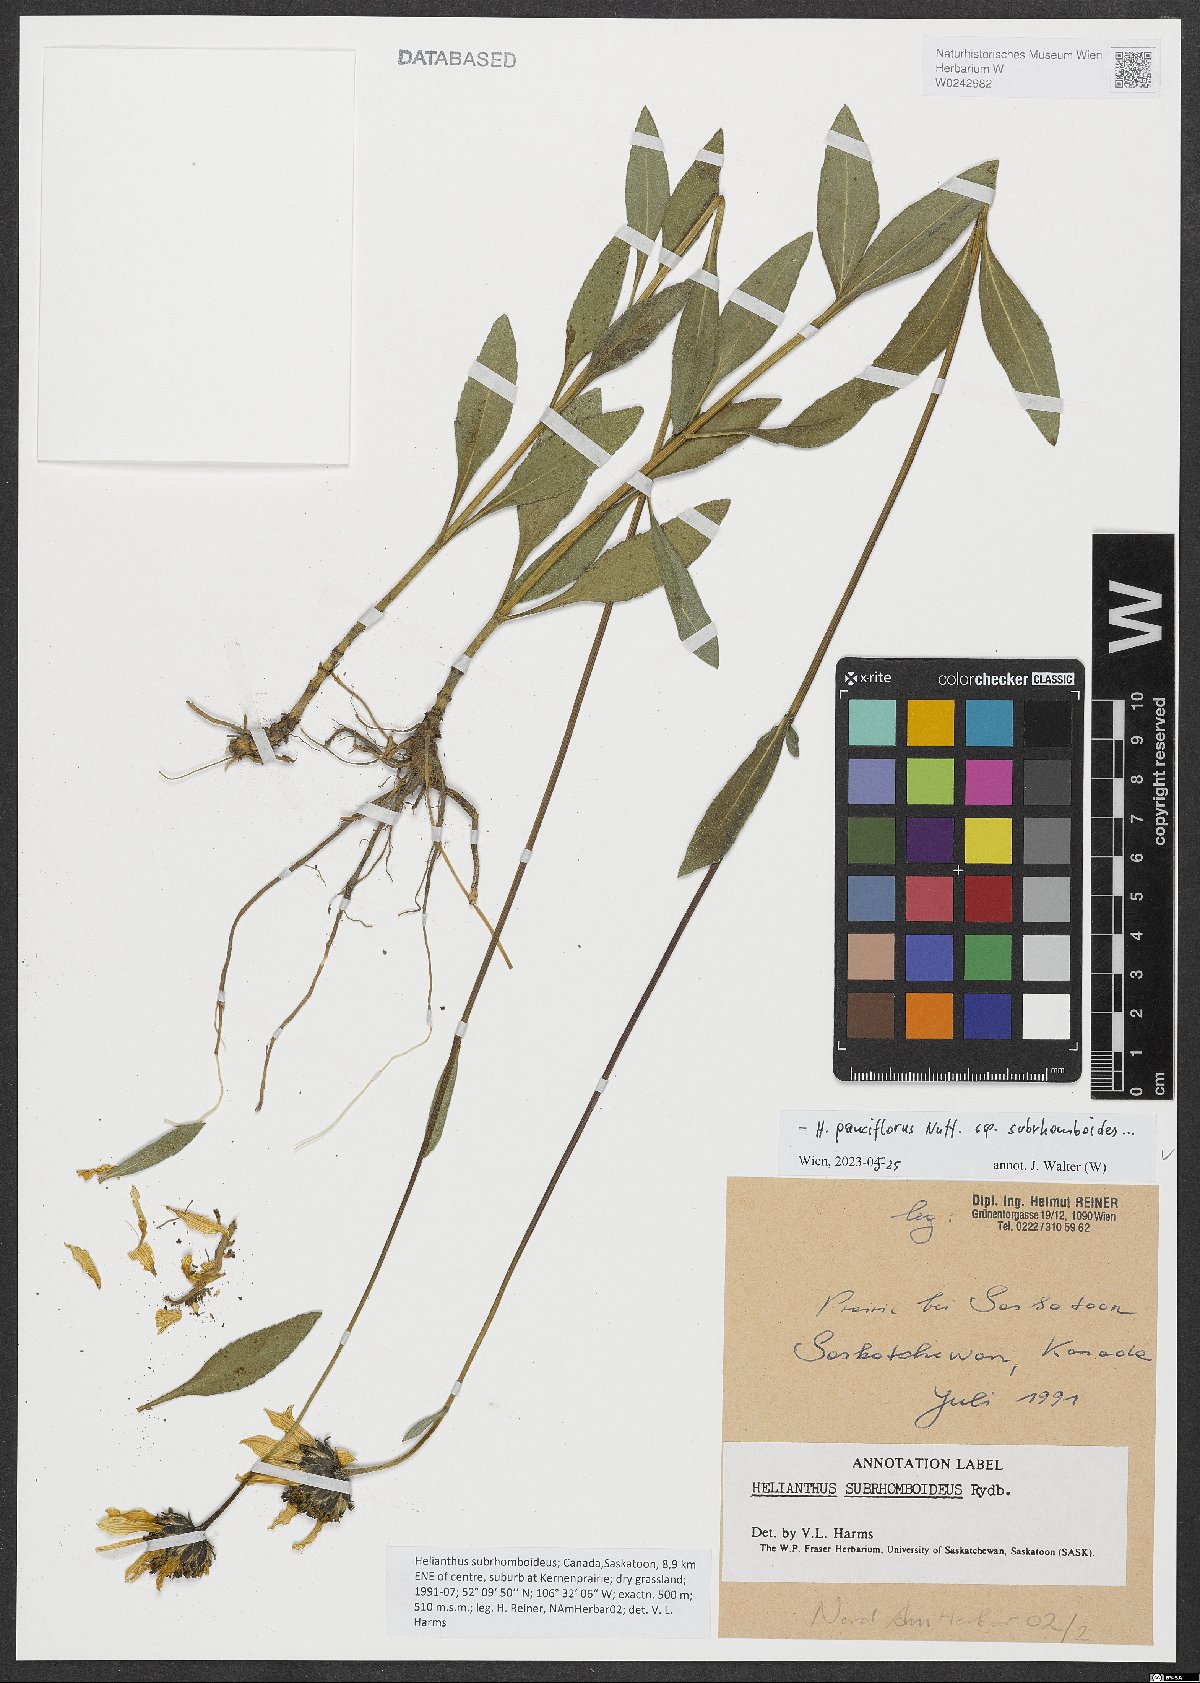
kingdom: Plantae
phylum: Tracheophyta
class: Magnoliopsida
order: Asterales
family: Asteraceae
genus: Helianthus
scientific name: Helianthus pauciflorus
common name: Stiff sunflower
